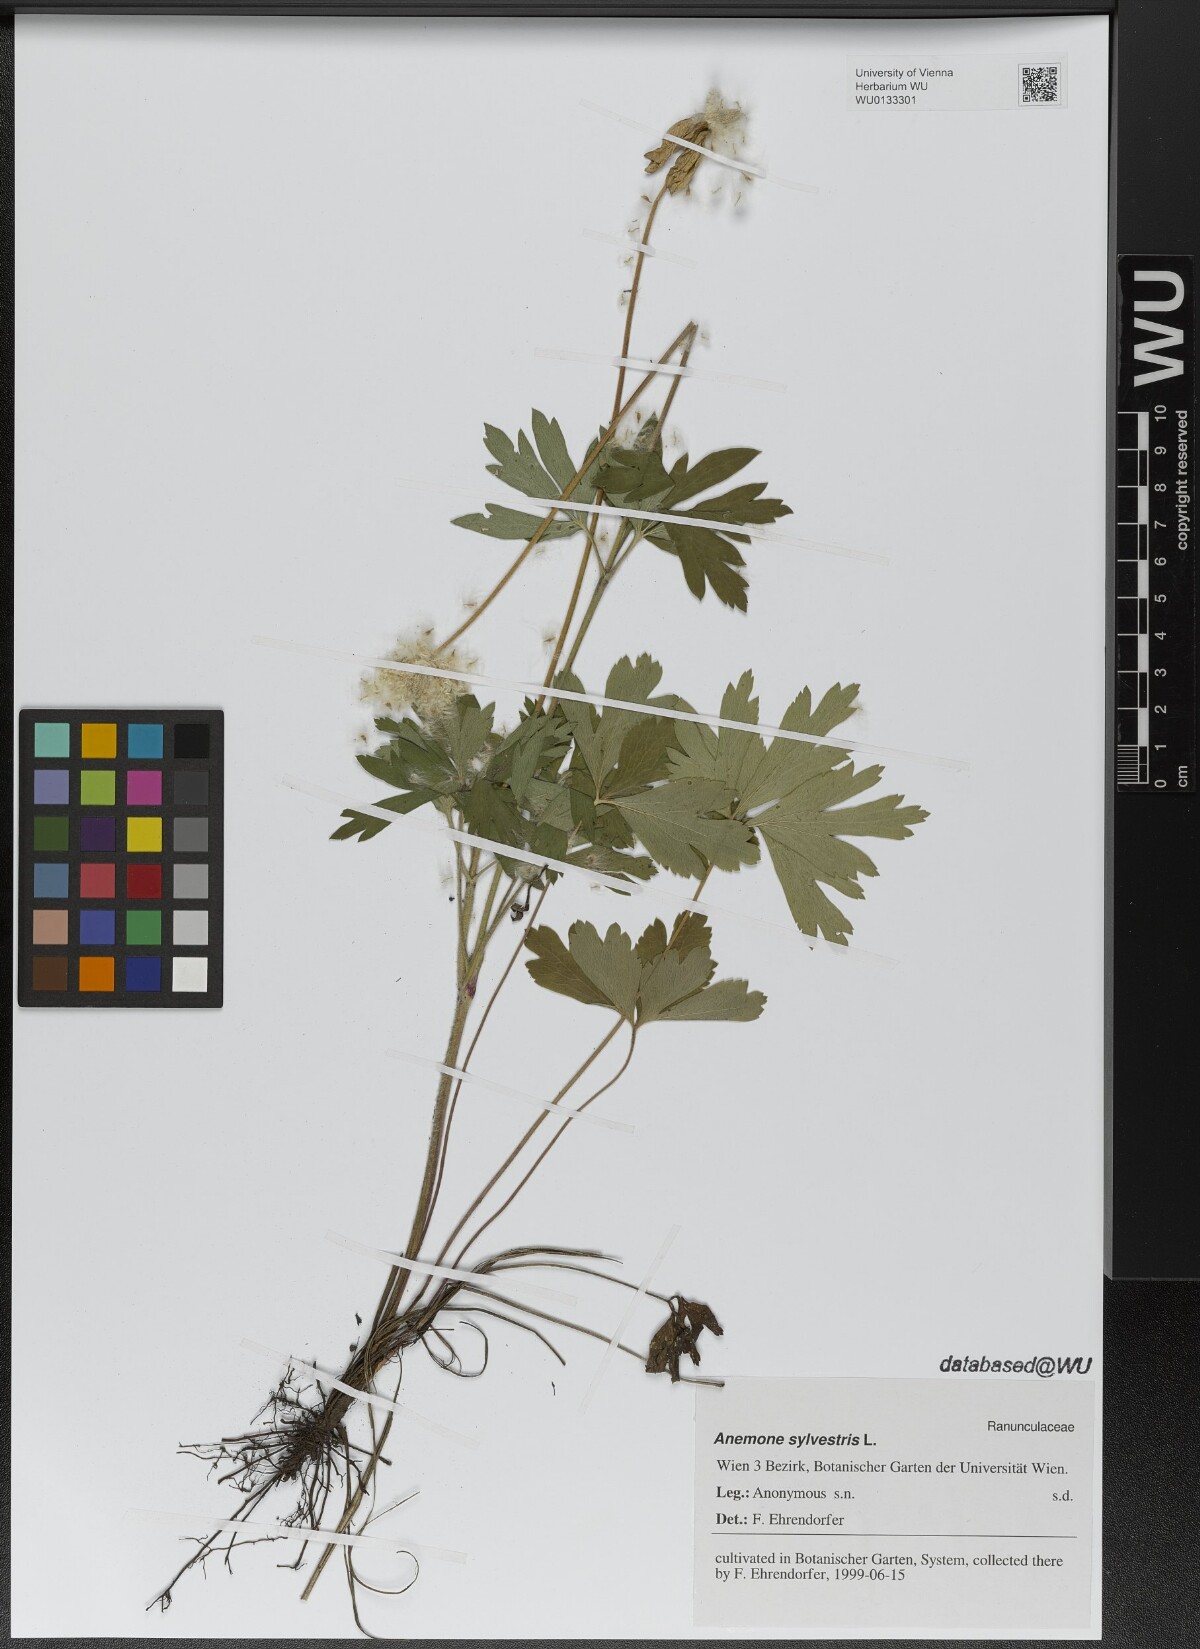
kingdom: Plantae
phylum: Tracheophyta
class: Magnoliopsida
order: Ranunculales
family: Ranunculaceae
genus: Anemone
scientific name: Anemone sylvestris
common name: Snowdrop anemone
